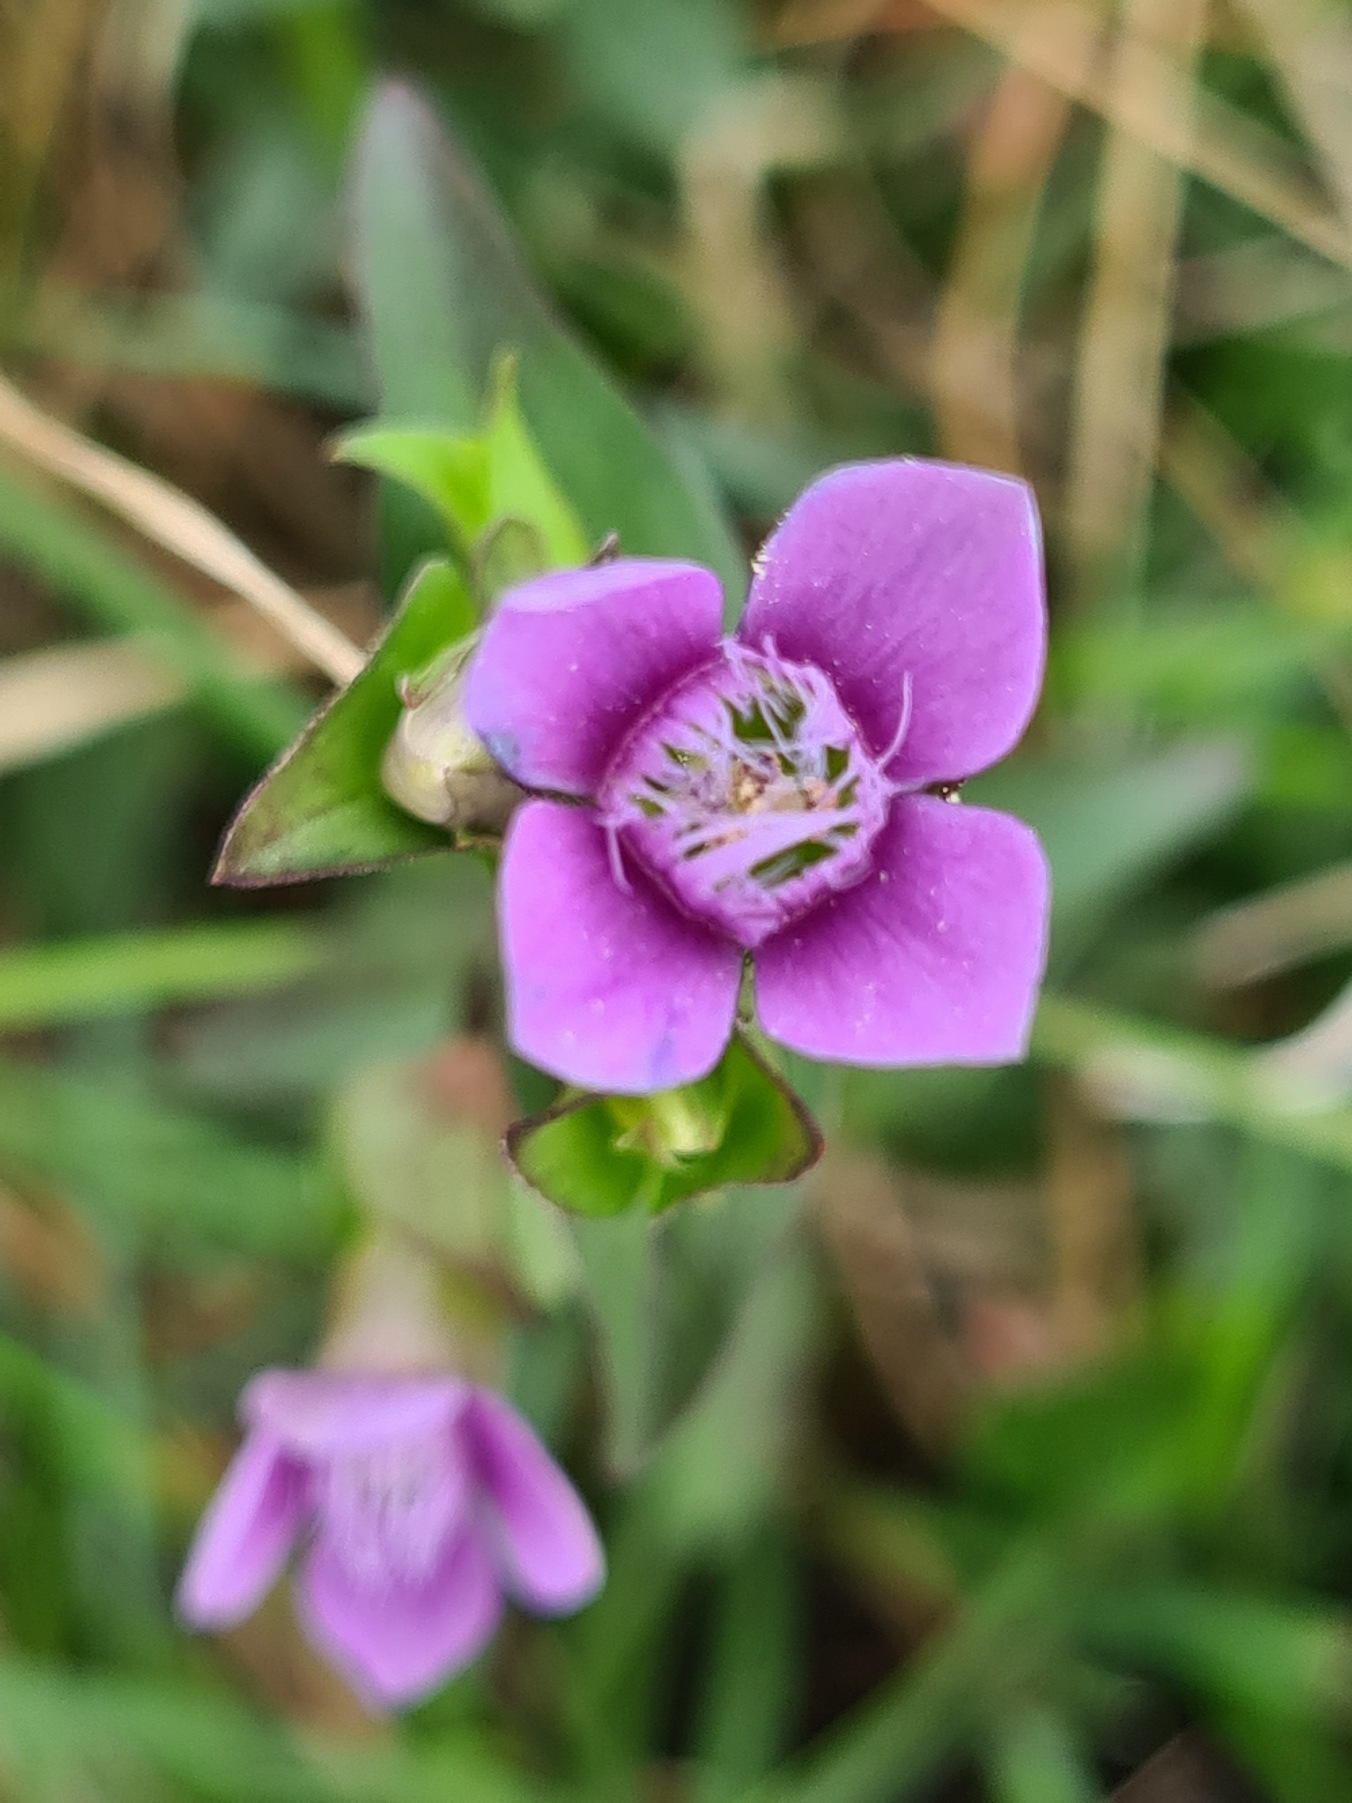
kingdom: Plantae
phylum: Tracheophyta
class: Magnoliopsida
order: Gentianales
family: Gentianaceae
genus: Gentianella
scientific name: Gentianella campestris
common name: Baltisk ensian
